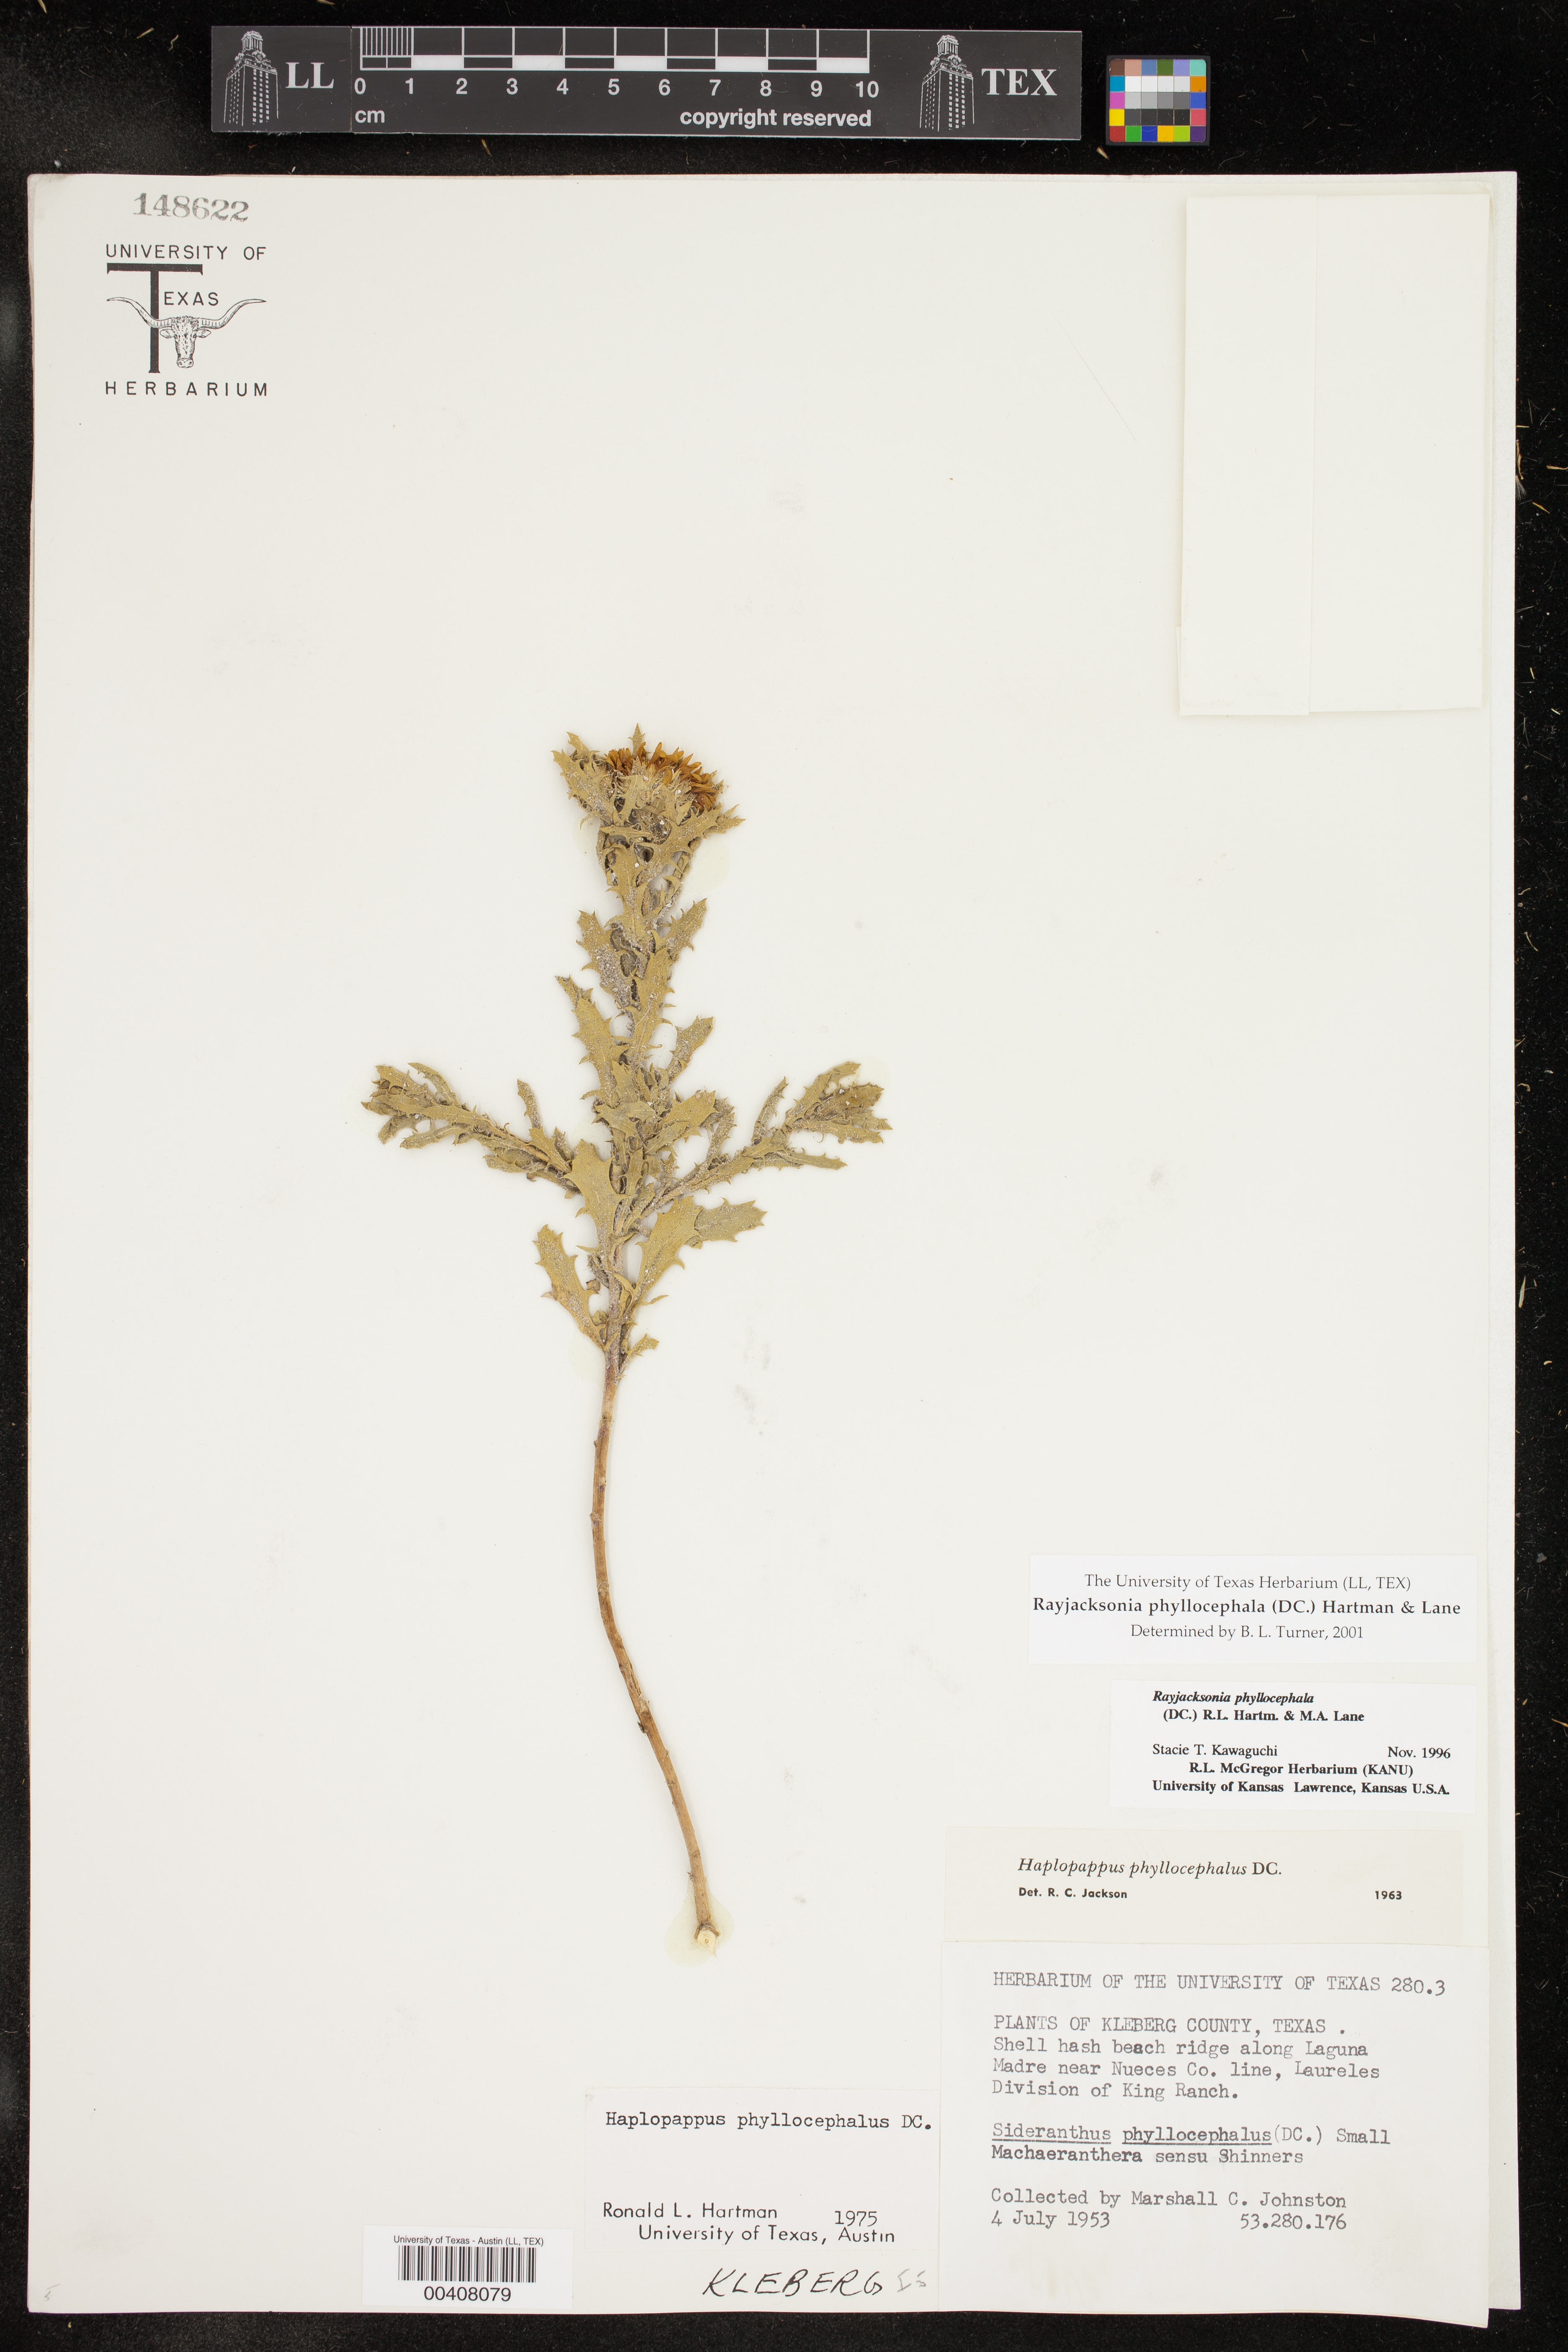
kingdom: Plantae
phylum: Tracheophyta
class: Magnoliopsida
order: Asterales
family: Asteraceae
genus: Rayjacksonia
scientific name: Rayjacksonia phyllocephala
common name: Gulf coast camphor daisy
